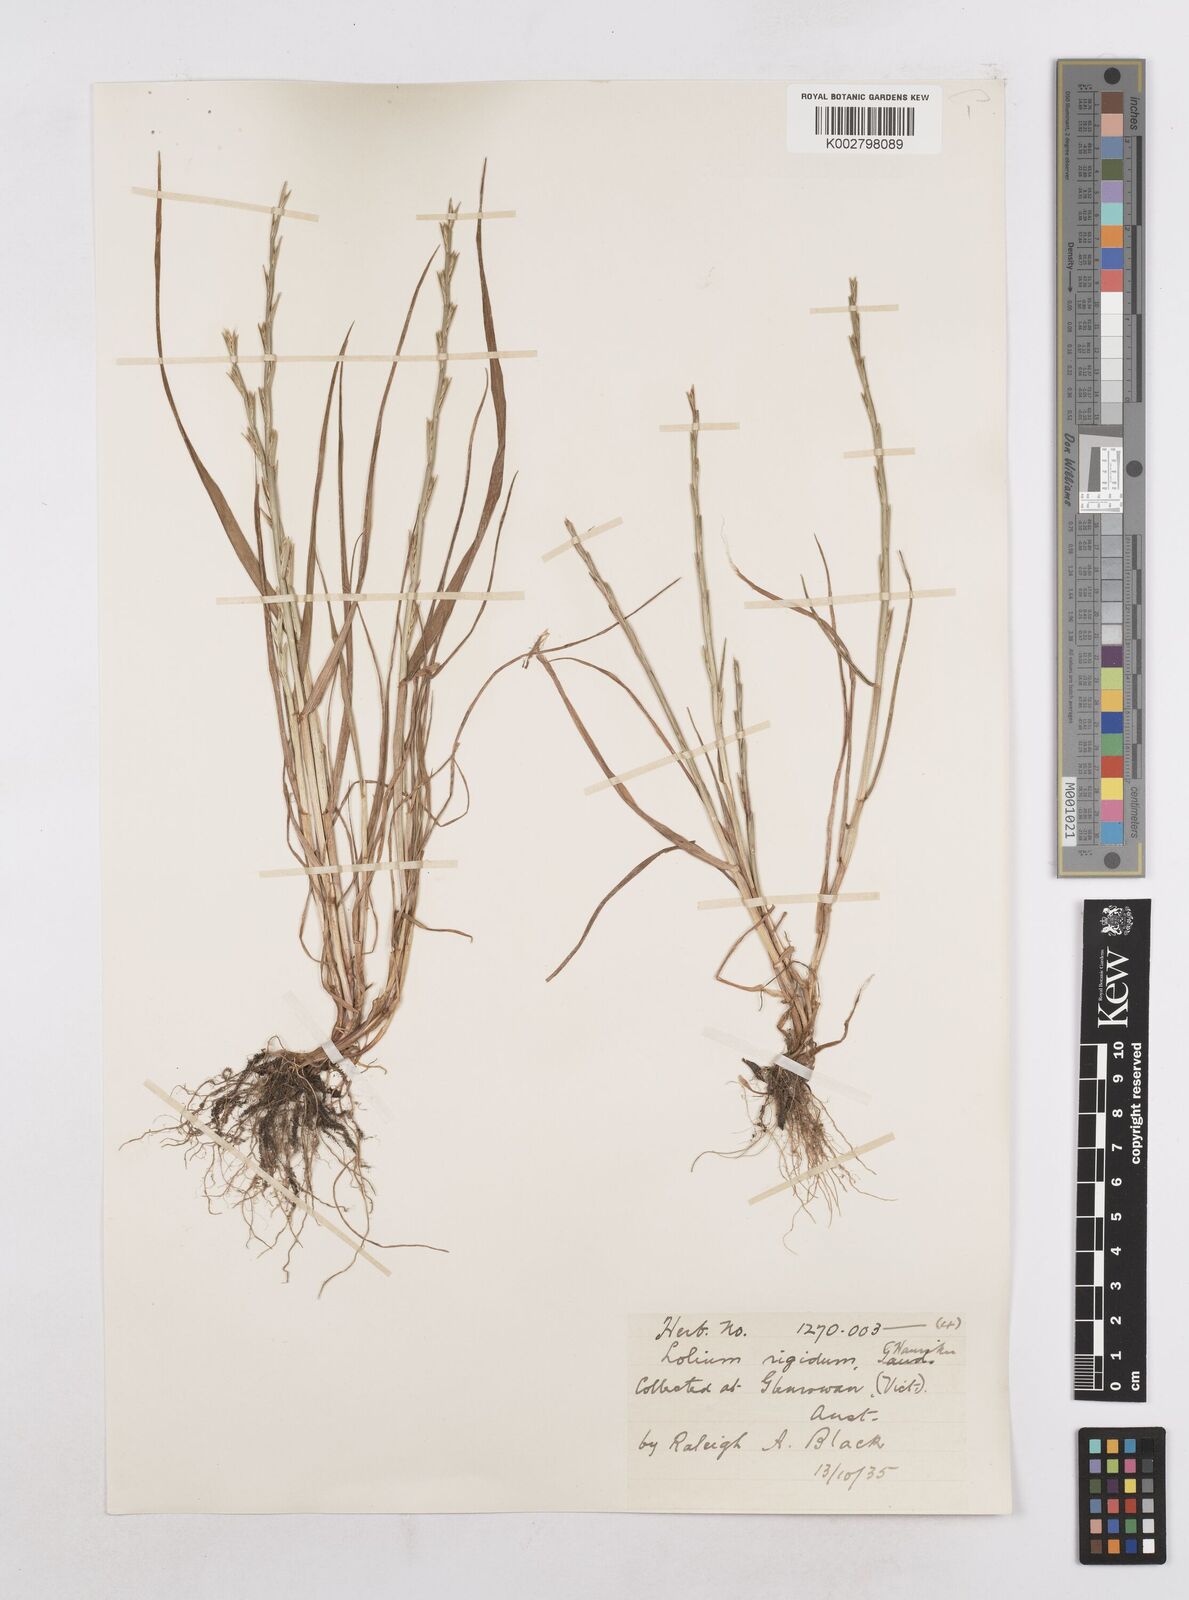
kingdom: Plantae
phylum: Tracheophyta
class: Liliopsida
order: Poales
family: Poaceae
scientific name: Poaceae
